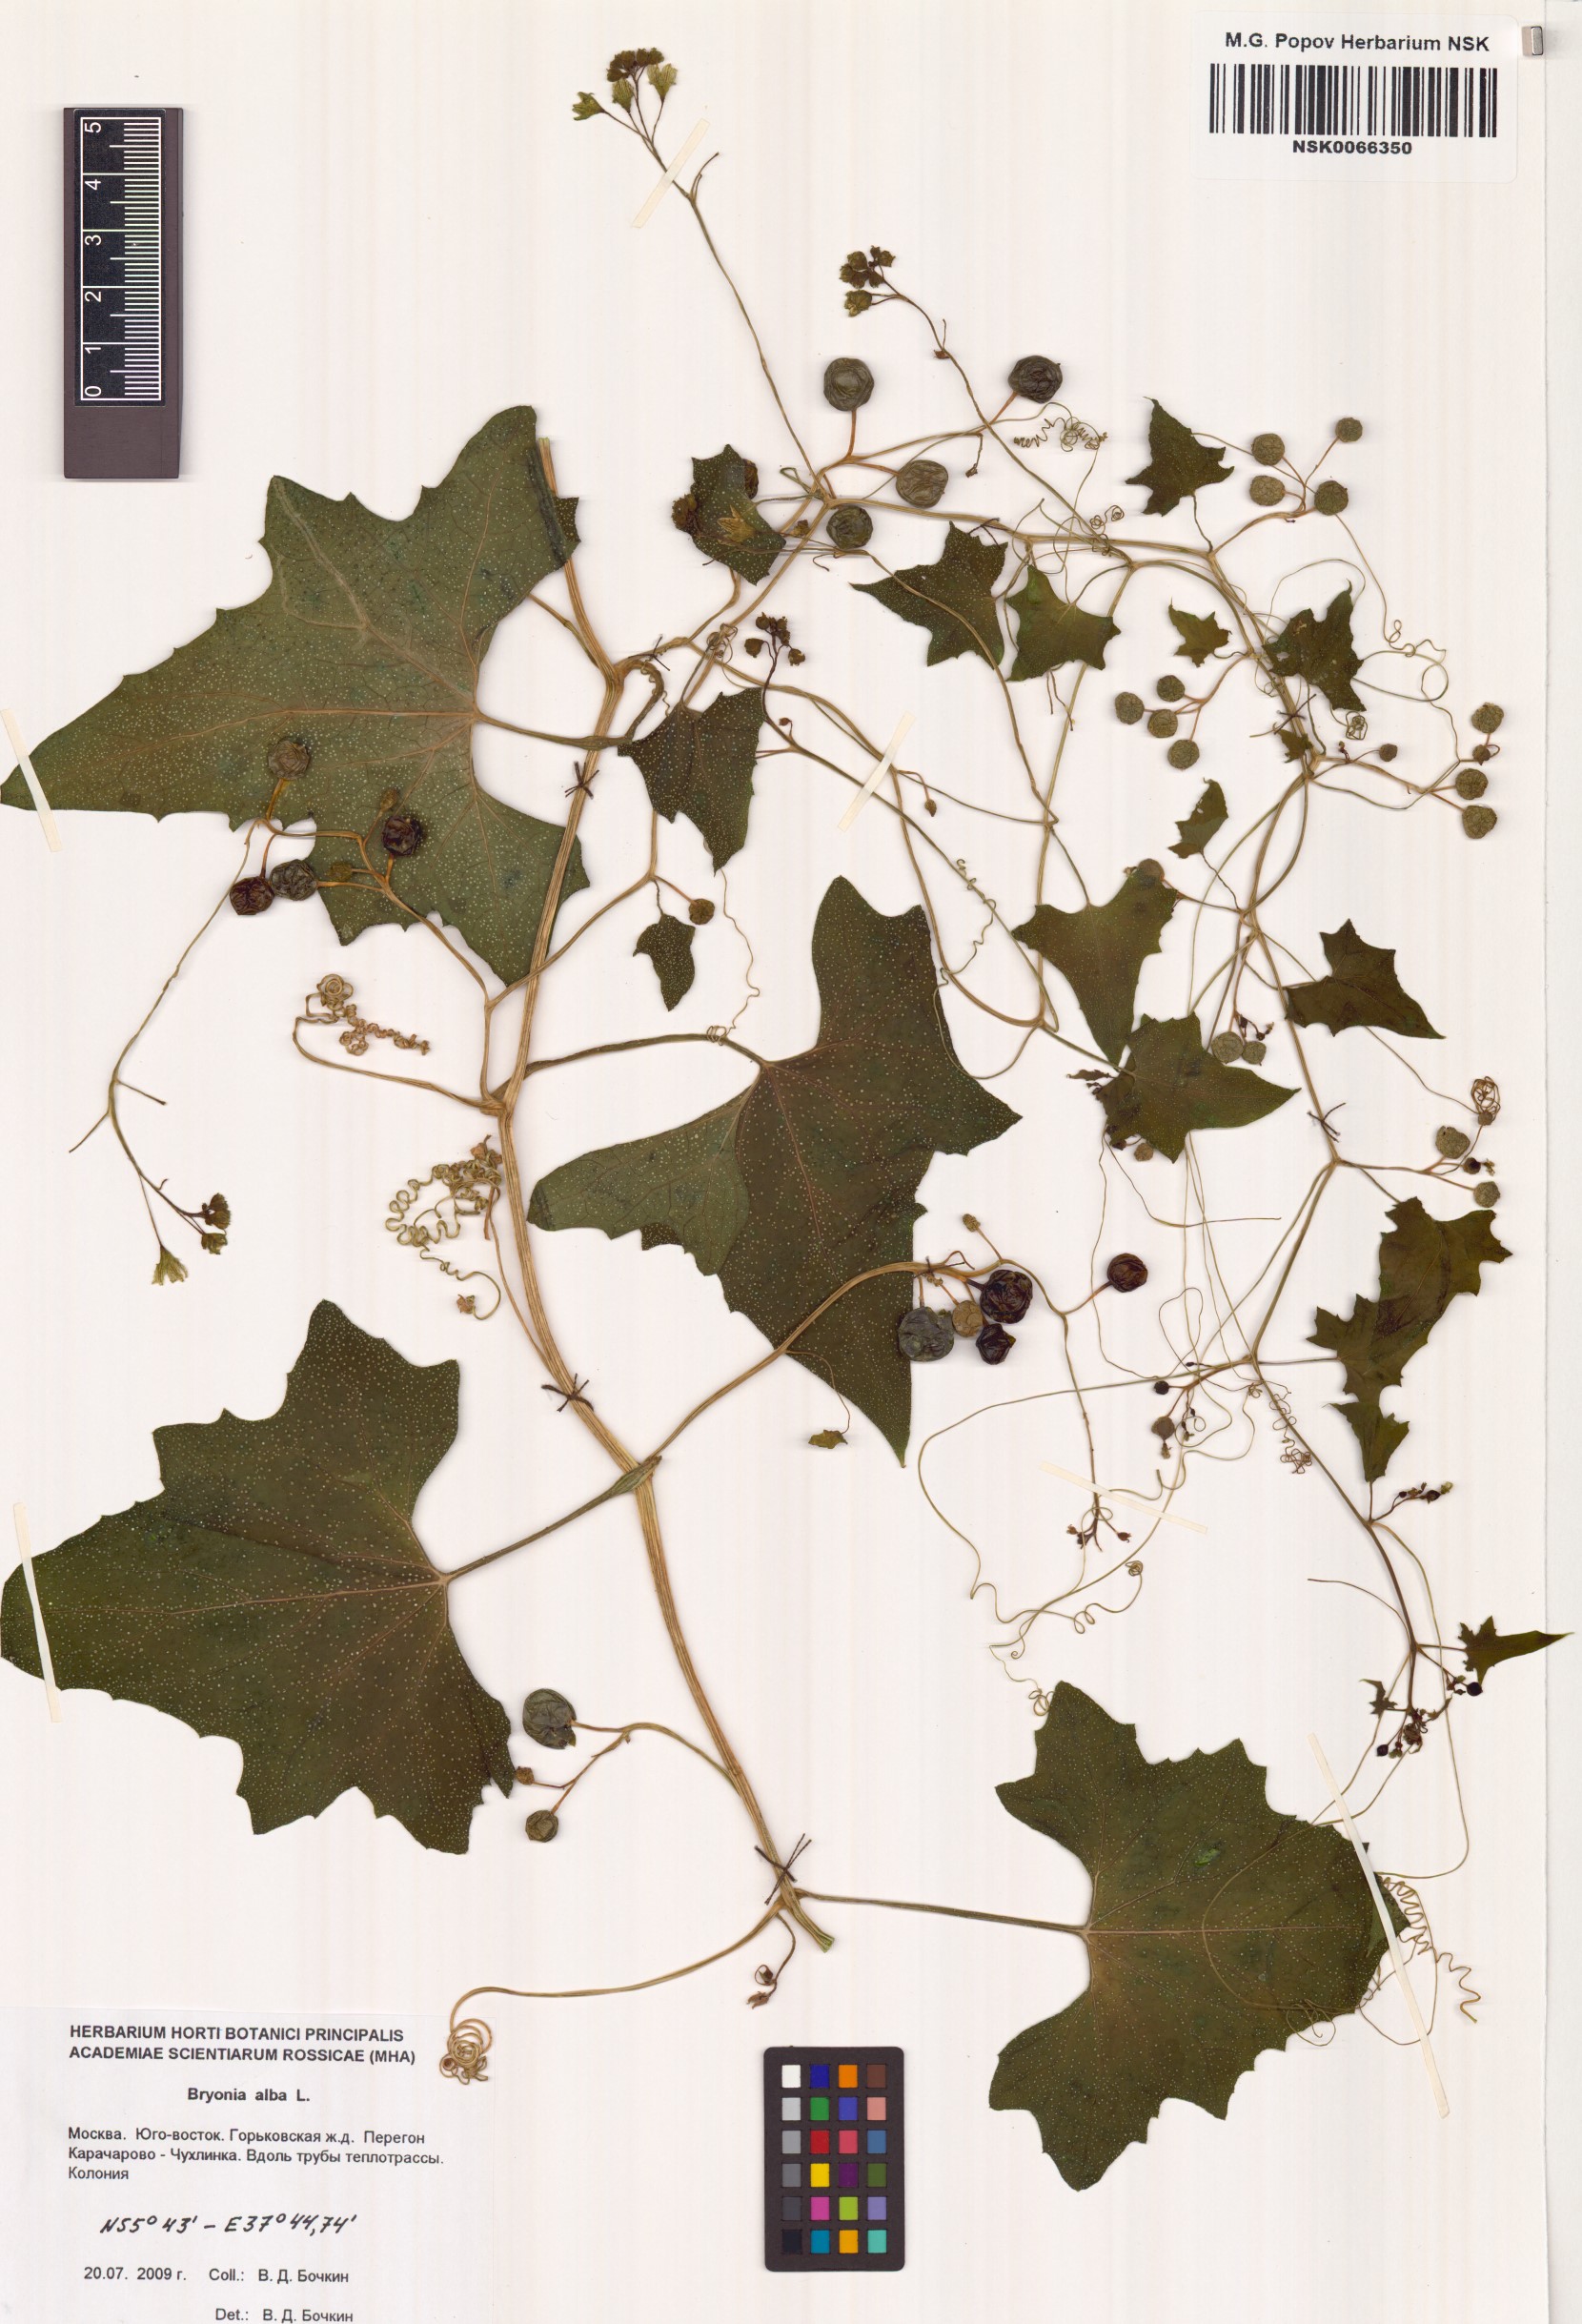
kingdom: Plantae
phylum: Tracheophyta
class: Magnoliopsida
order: Cucurbitales
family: Cucurbitaceae
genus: Bryonia
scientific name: Bryonia alba
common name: White bryony
